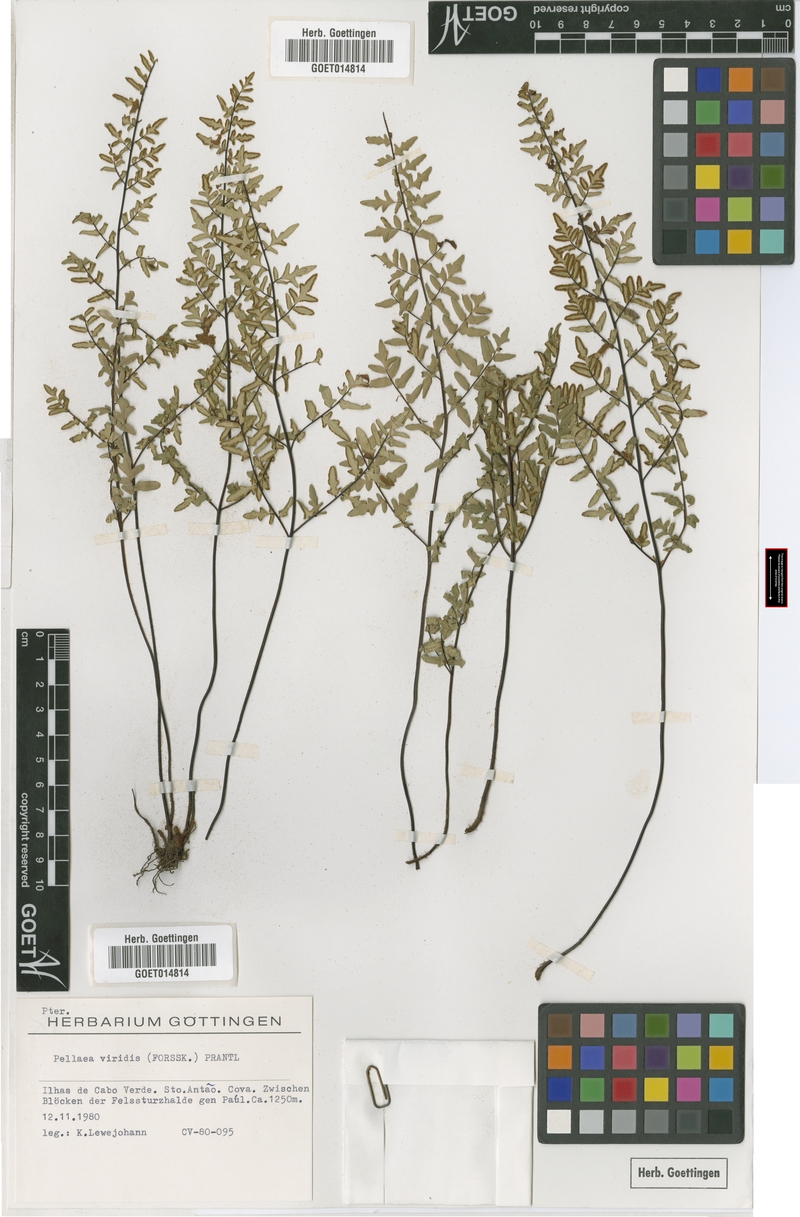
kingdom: Plantae
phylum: Tracheophyta
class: Polypodiopsida
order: Polypodiales
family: Pteridaceae
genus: Cheilanthes
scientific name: Cheilanthes viridis
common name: Green cliffbrake
